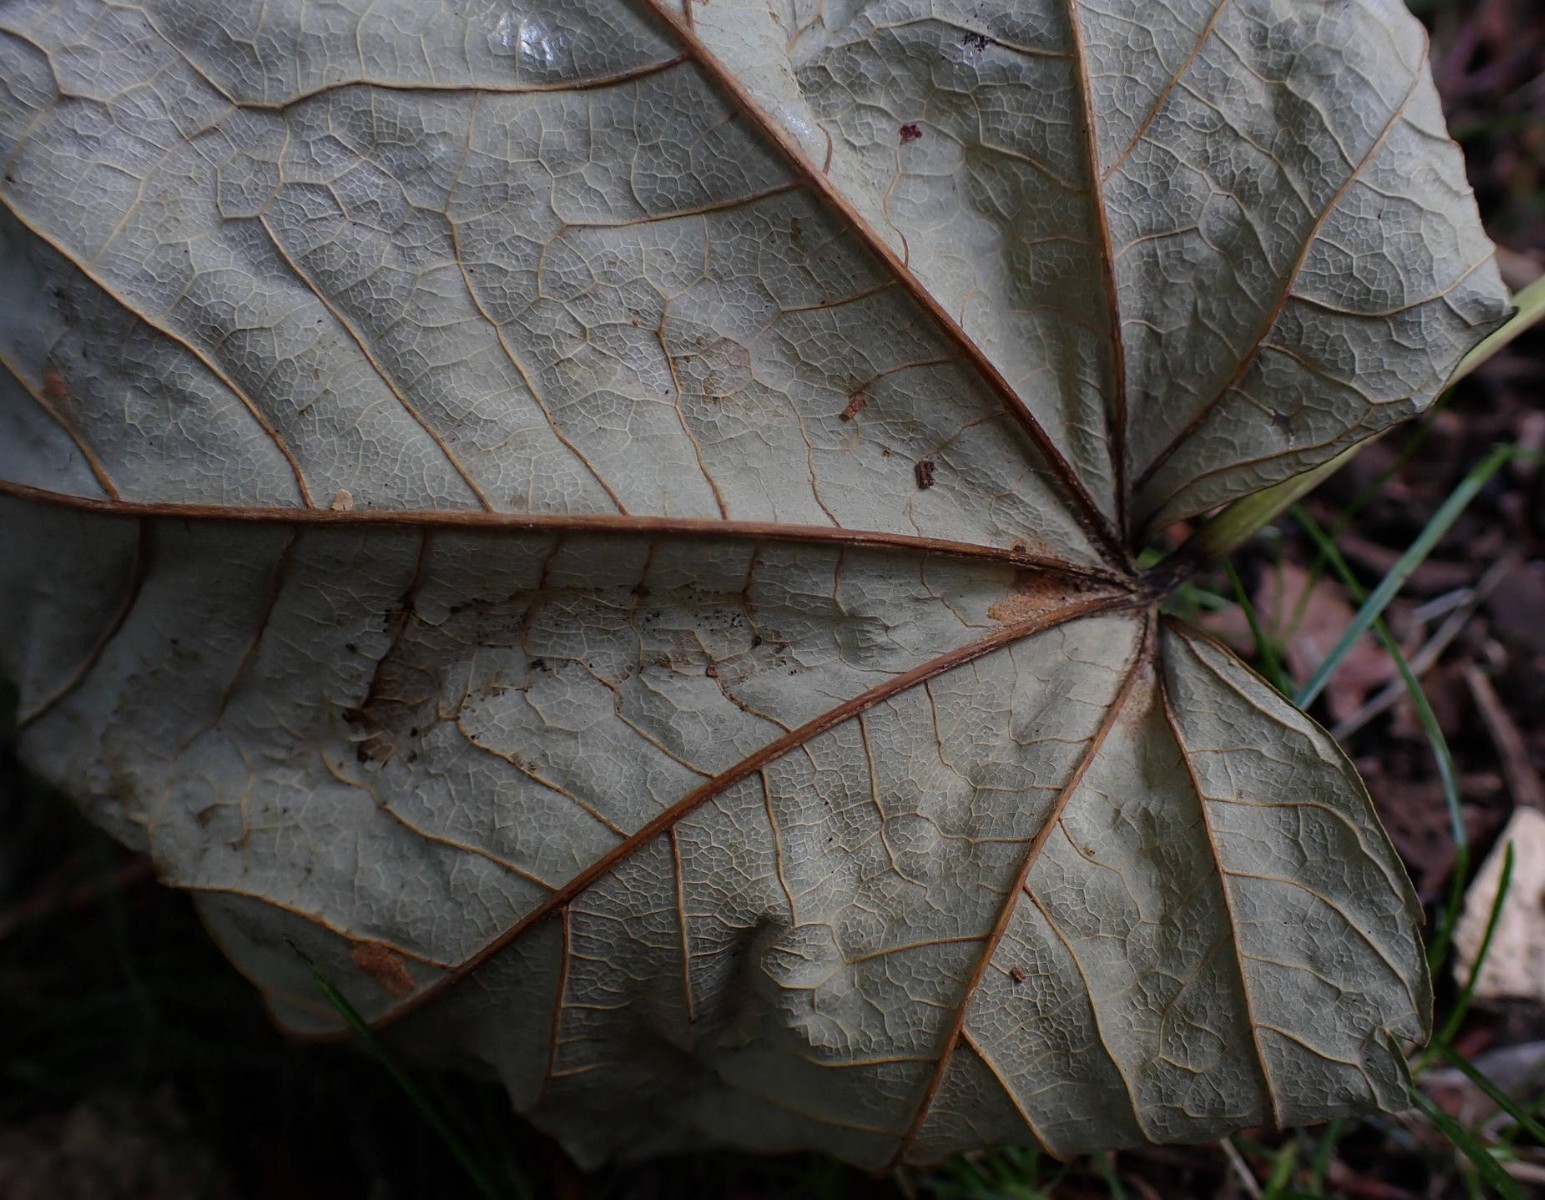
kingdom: Fungi
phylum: Ascomycota
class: Sordariomycetes
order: Diaporthales
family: Gnomoniaceae
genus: Pleuroceras
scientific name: Pleuroceras pseudoplatani
